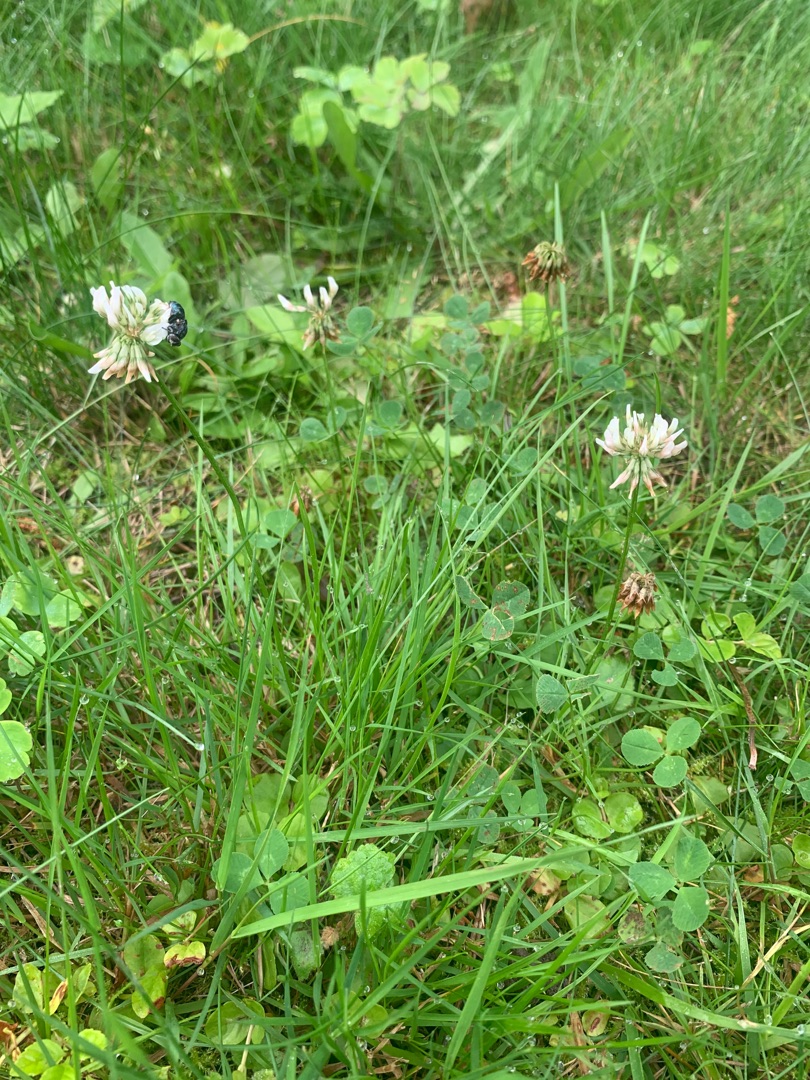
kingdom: Plantae
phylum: Tracheophyta
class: Magnoliopsida
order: Fabales
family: Fabaceae
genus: Trifolium
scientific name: Trifolium repens
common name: Hvid-kløver
